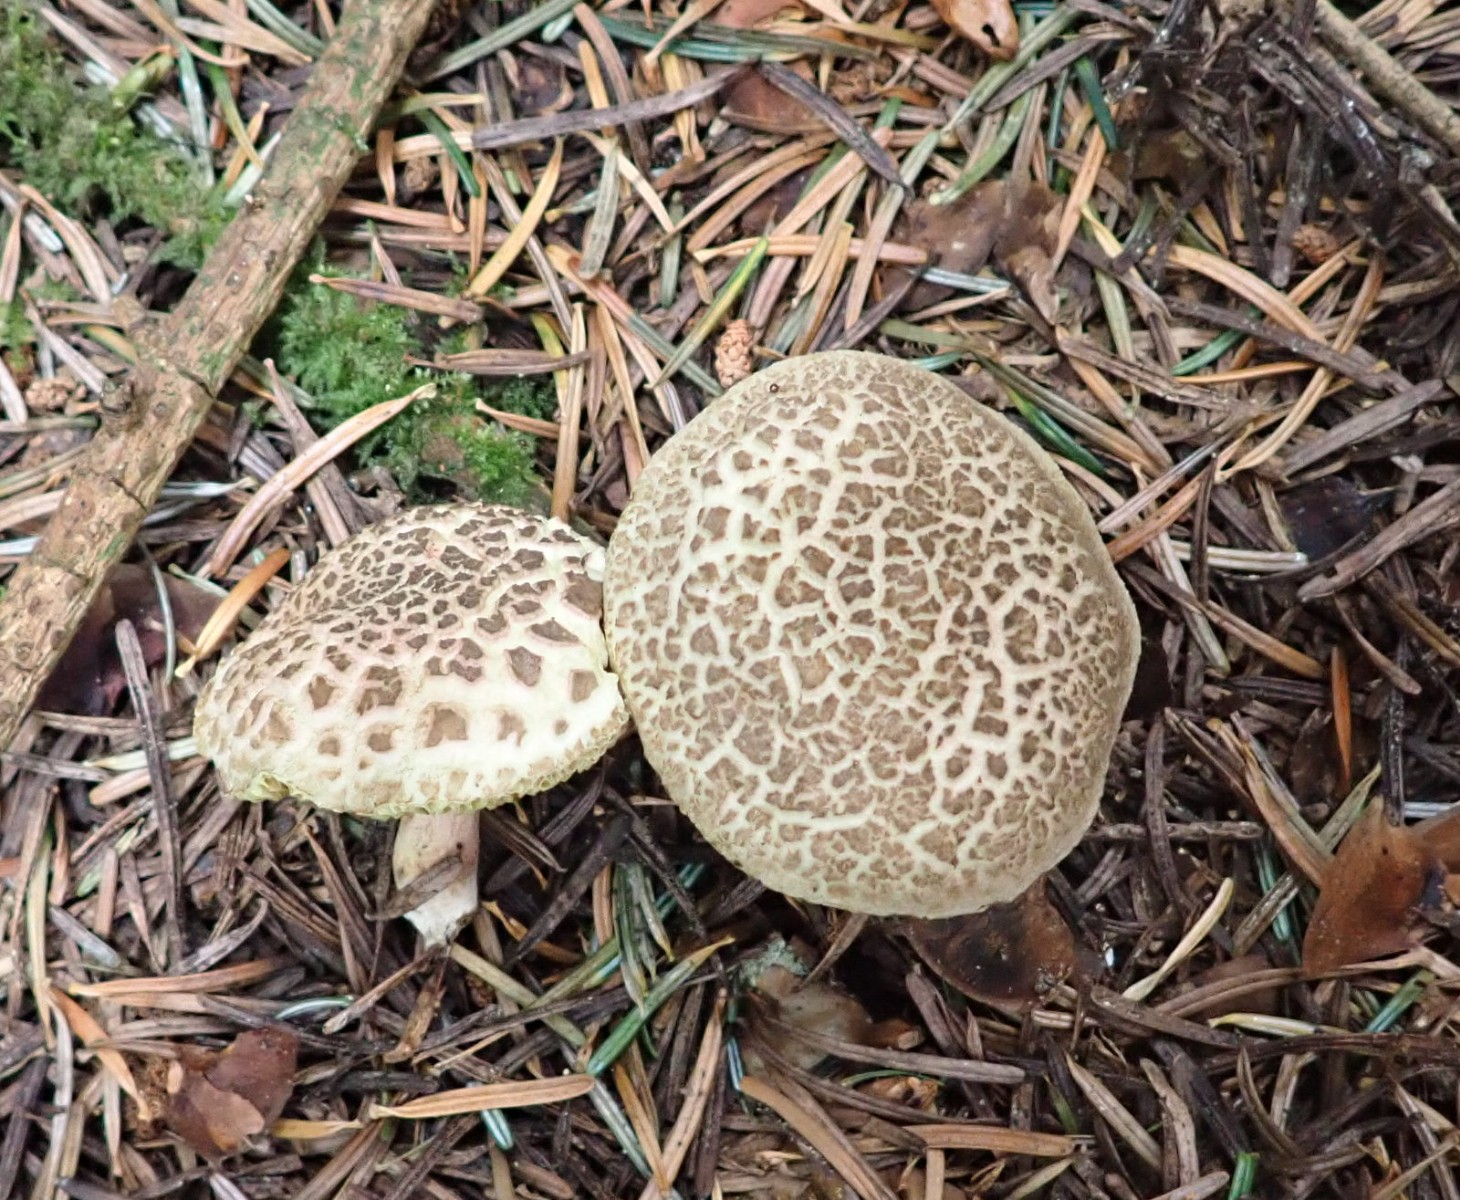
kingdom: Fungi
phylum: Basidiomycota
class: Agaricomycetes
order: Boletales
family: Boletaceae
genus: Xerocomellus
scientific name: Xerocomellus porosporus
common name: hvidsprukken rørhat
